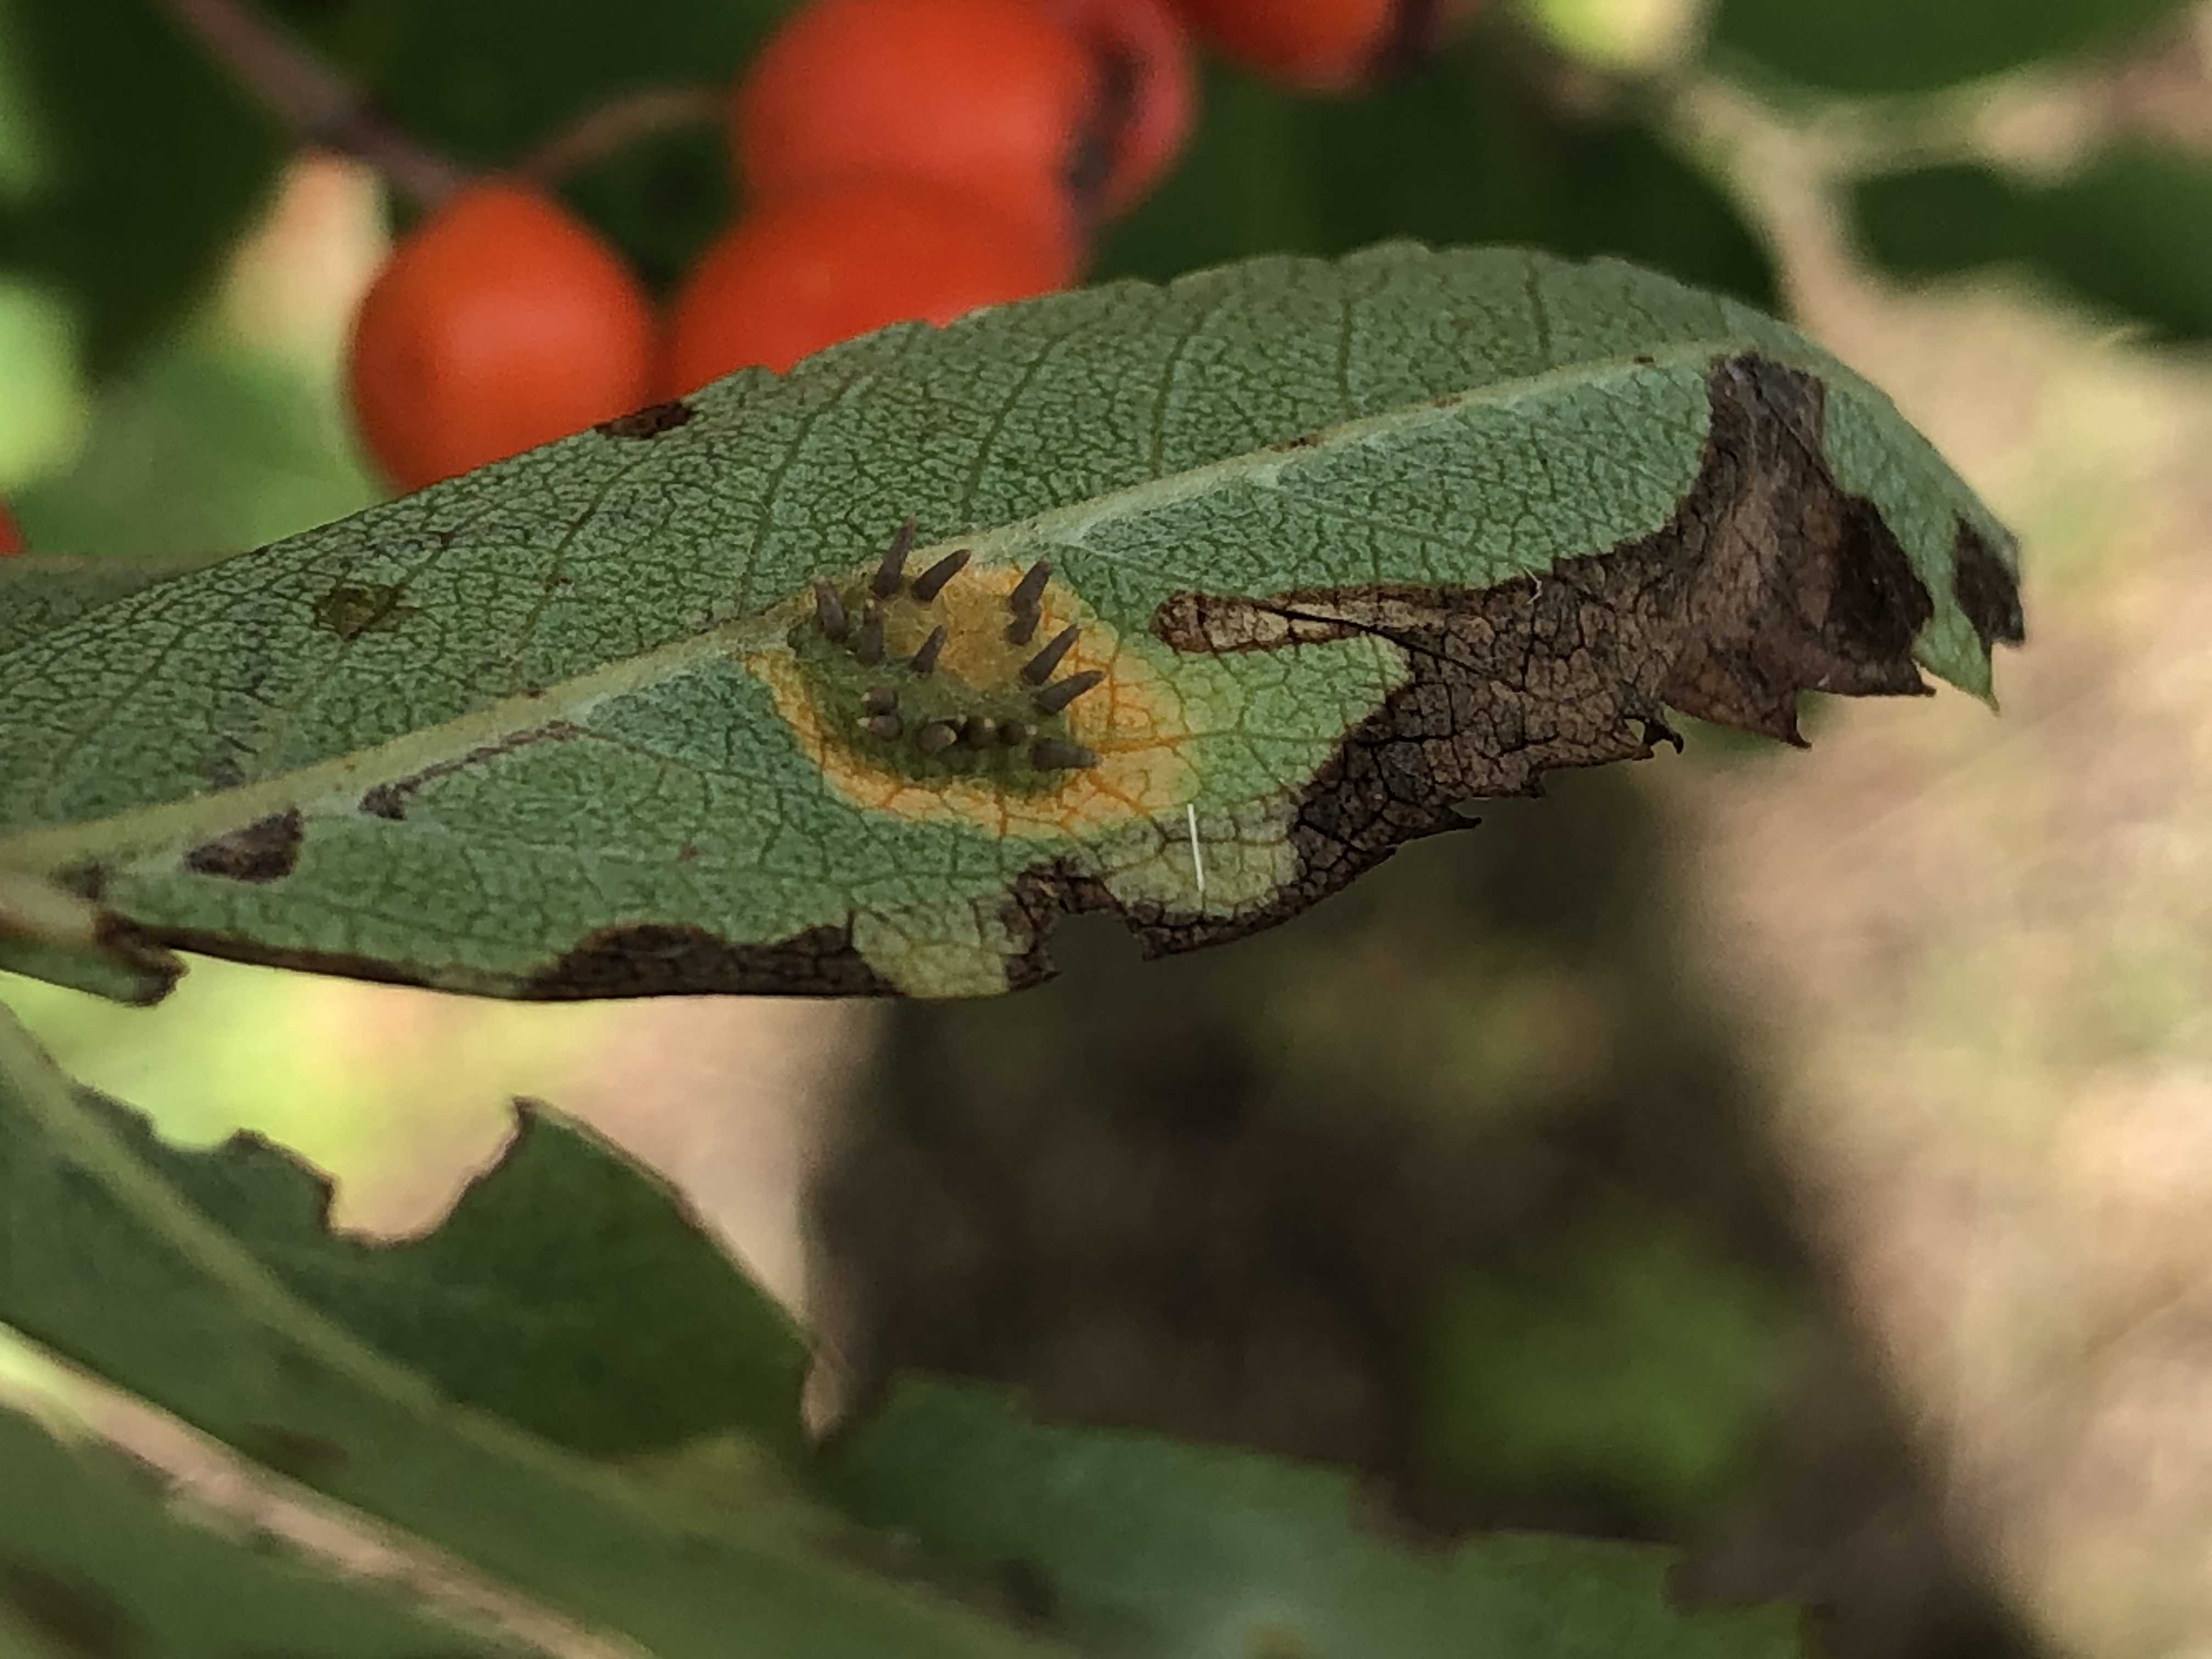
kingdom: Fungi
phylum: Basidiomycota
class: Pucciniomycetes
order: Pucciniales
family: Gymnosporangiaceae
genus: Gymnosporangium
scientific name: Gymnosporangium cornutum
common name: rønnehorn-bævrerust
